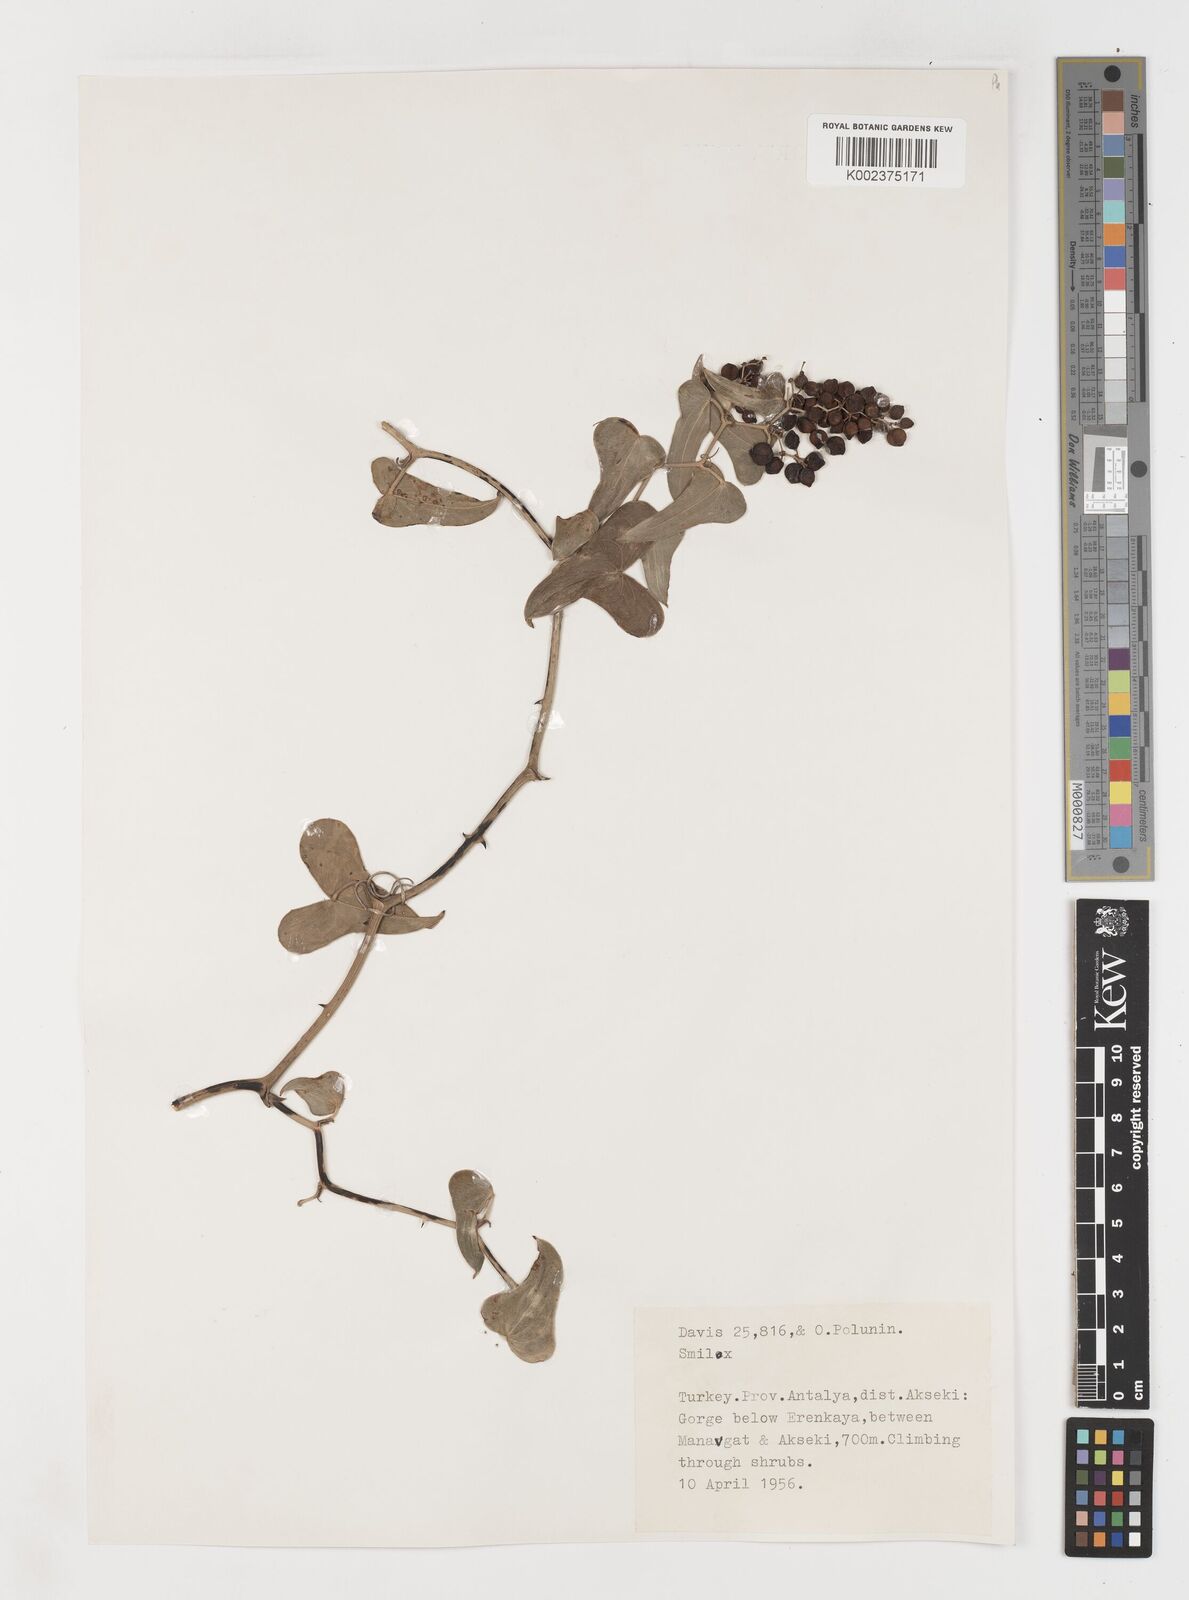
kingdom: Plantae
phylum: Tracheophyta
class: Liliopsida
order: Liliales
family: Smilacaceae
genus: Smilax
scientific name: Smilax aspera
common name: Common smilax
